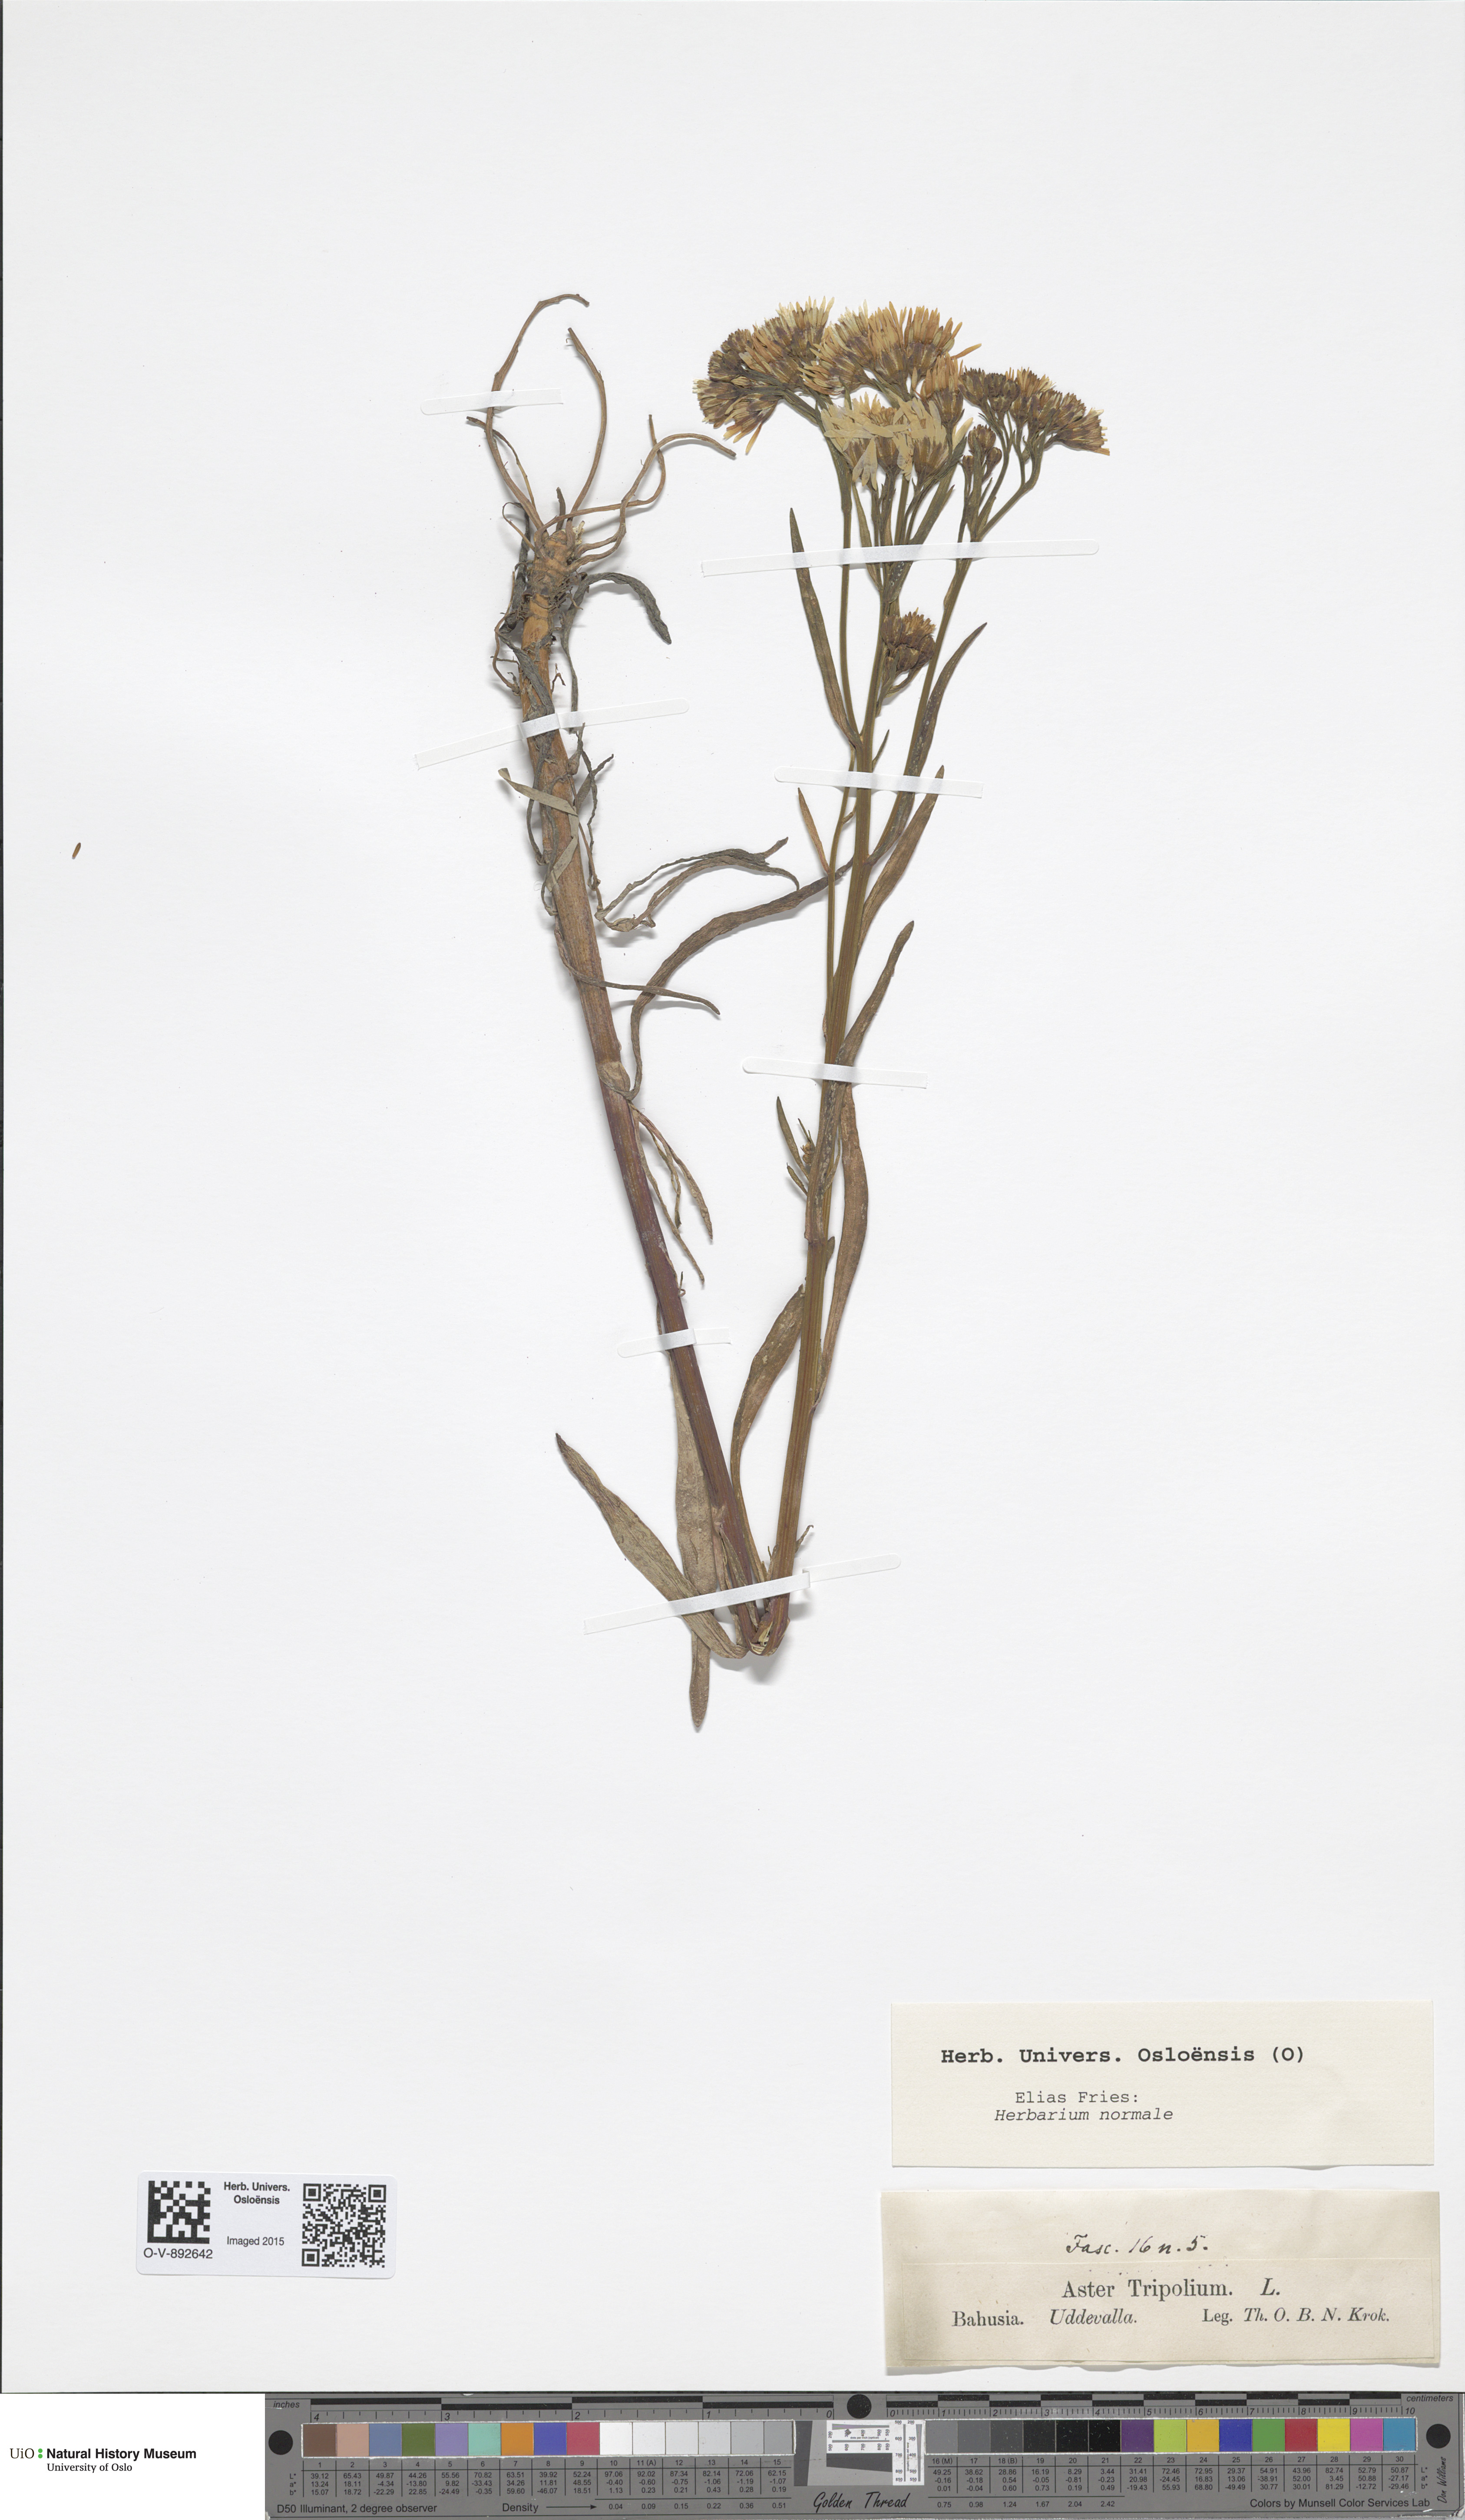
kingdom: Plantae
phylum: Tracheophyta
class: Magnoliopsida
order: Asterales
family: Asteraceae
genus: Tripolium
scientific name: Tripolium pannonicum
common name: Sea aster
